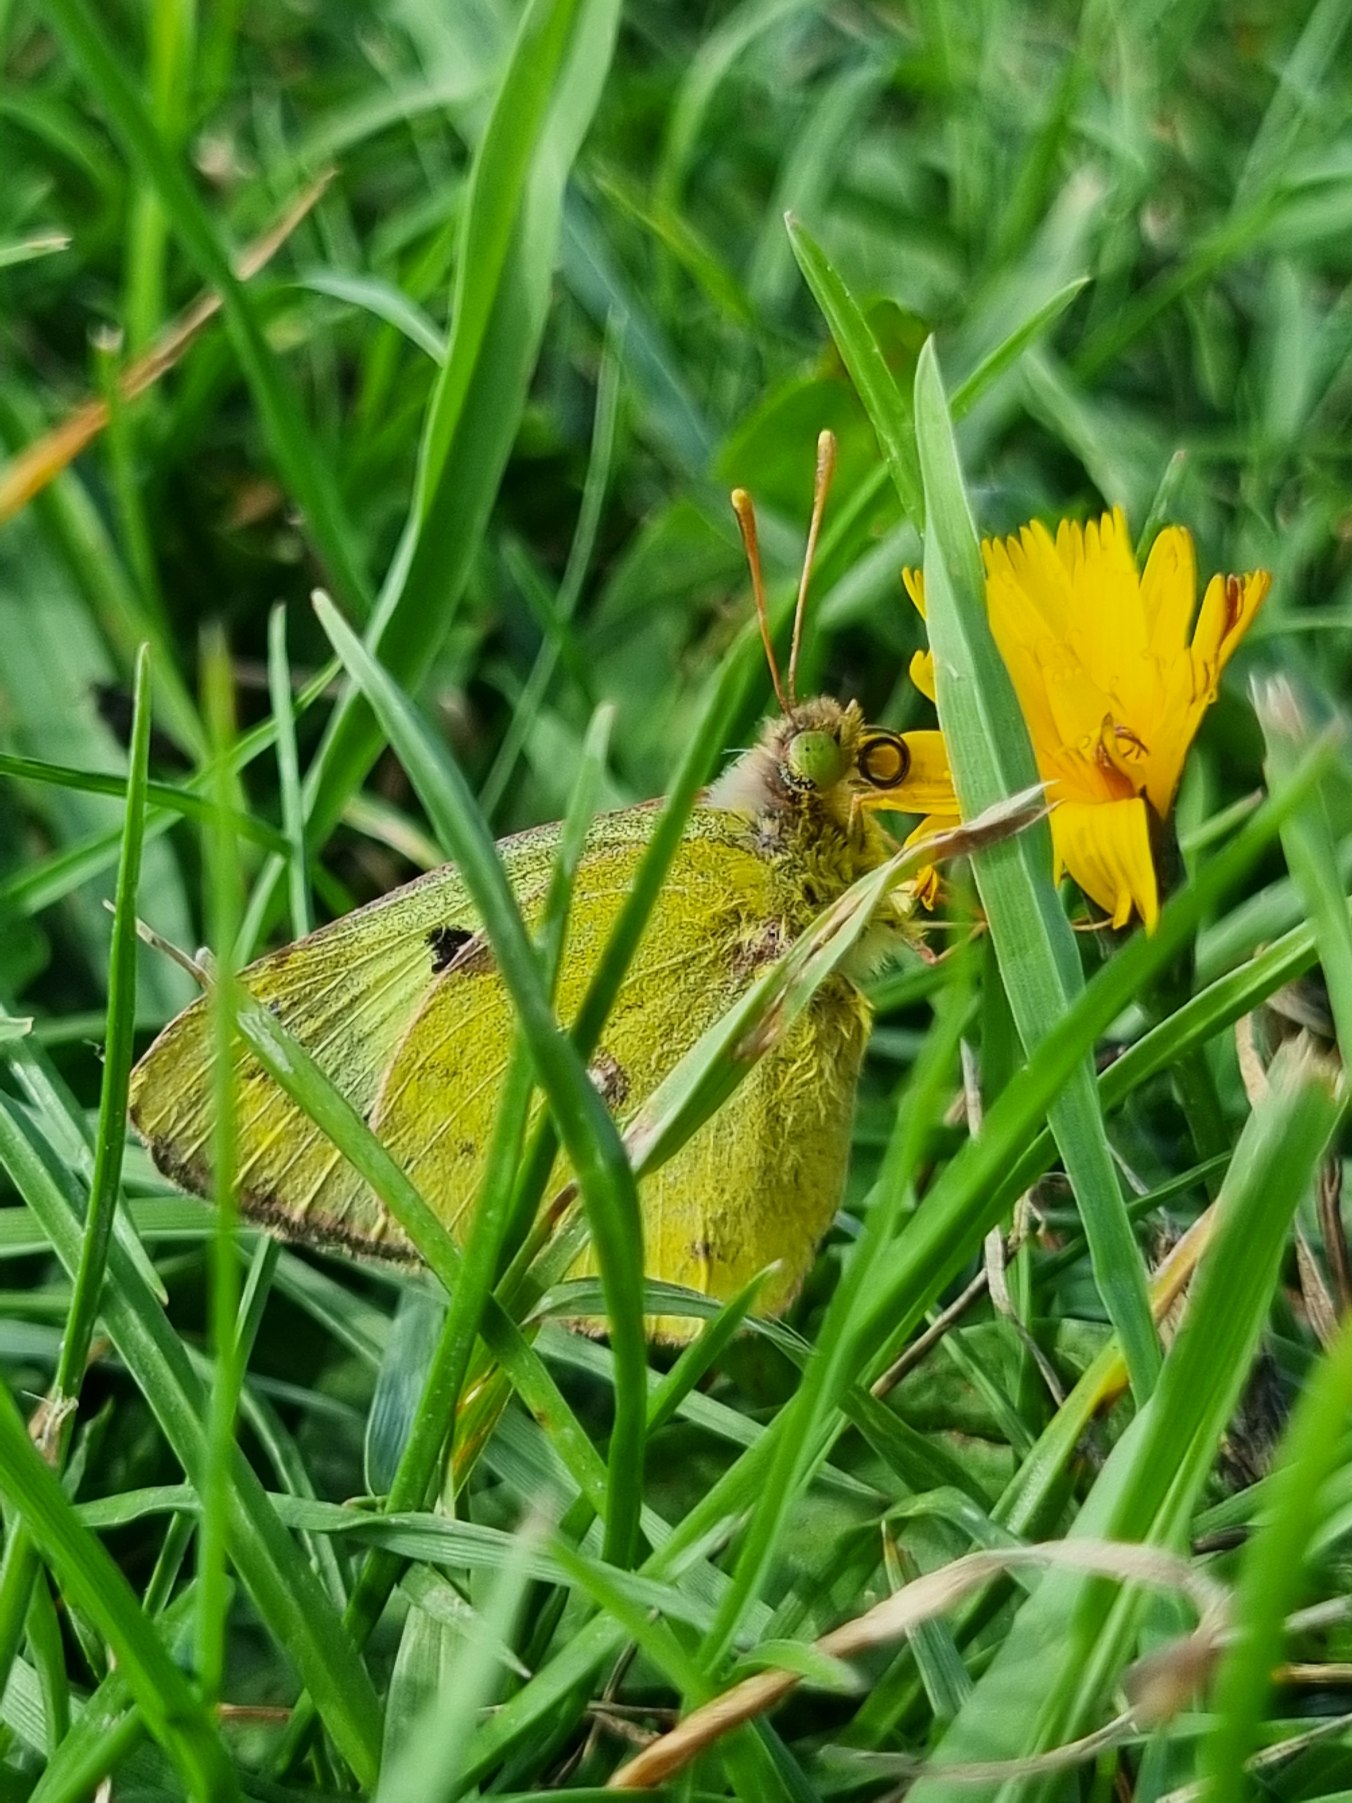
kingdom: Animalia
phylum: Arthropoda
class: Insecta
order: Lepidoptera
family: Pieridae
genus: Colias
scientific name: Colias hyale
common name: Gul høsommerfugl
